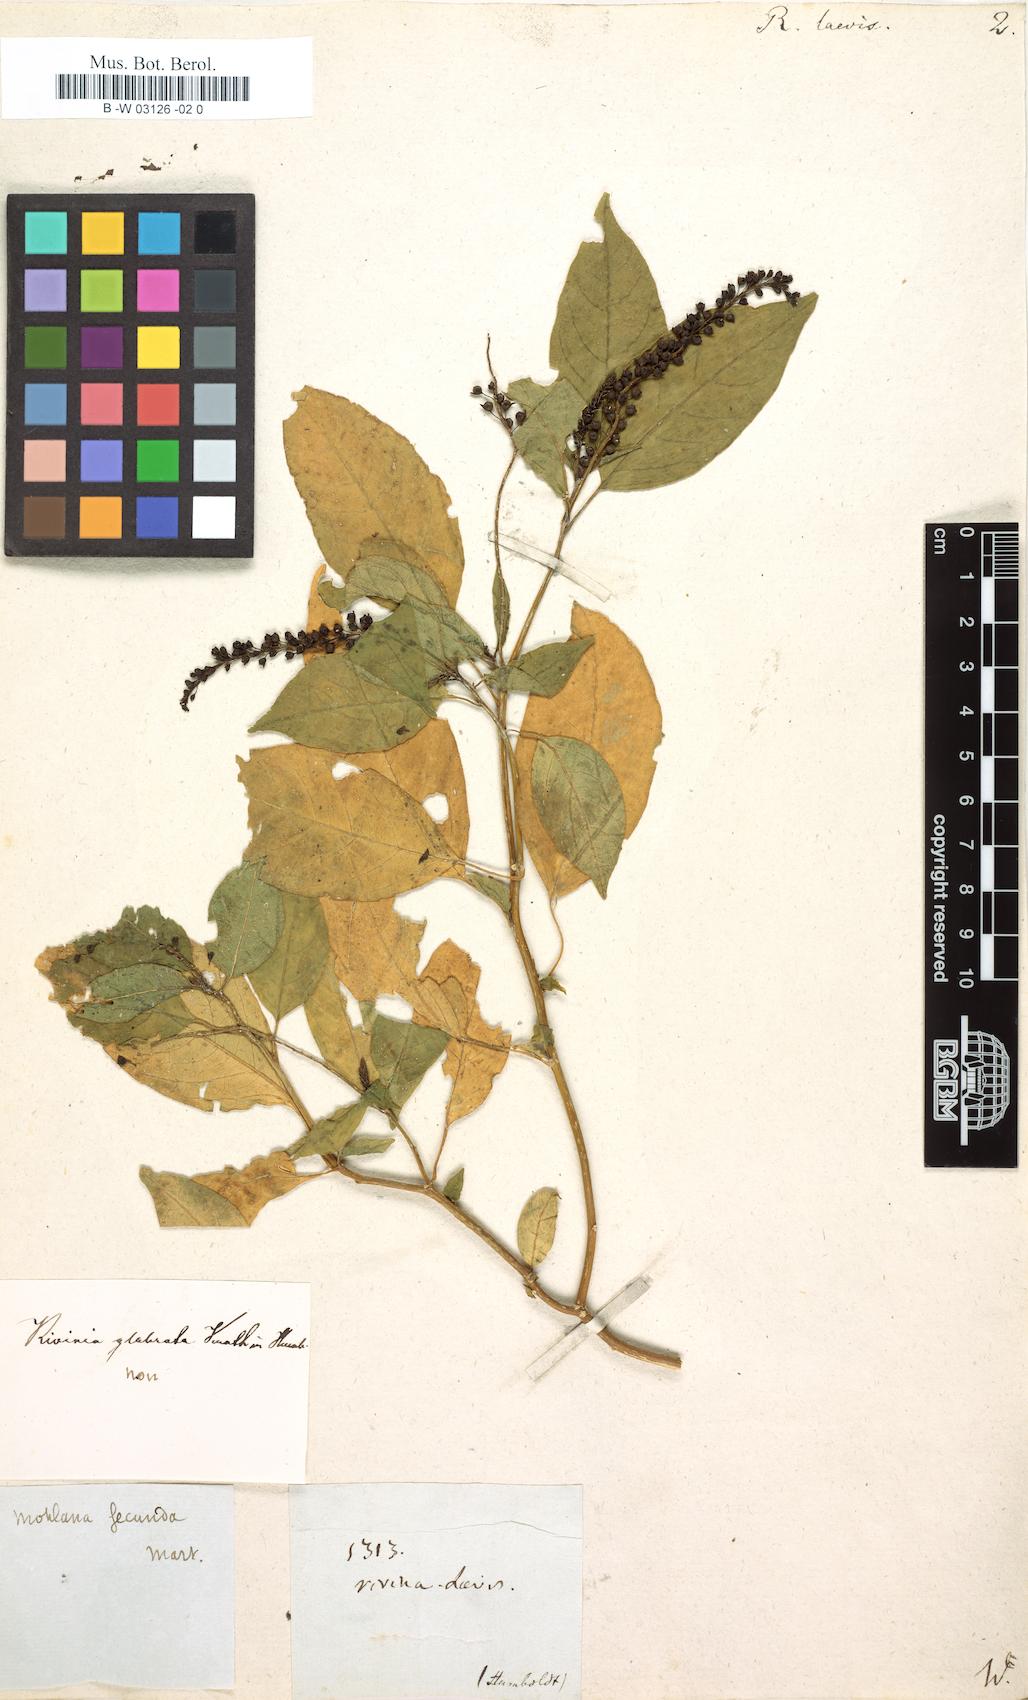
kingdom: Plantae
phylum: Tracheophyta
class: Magnoliopsida
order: Caryophyllales
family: Phytolaccaceae
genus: Rivina
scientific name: Rivina humilis
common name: Rougeplant
